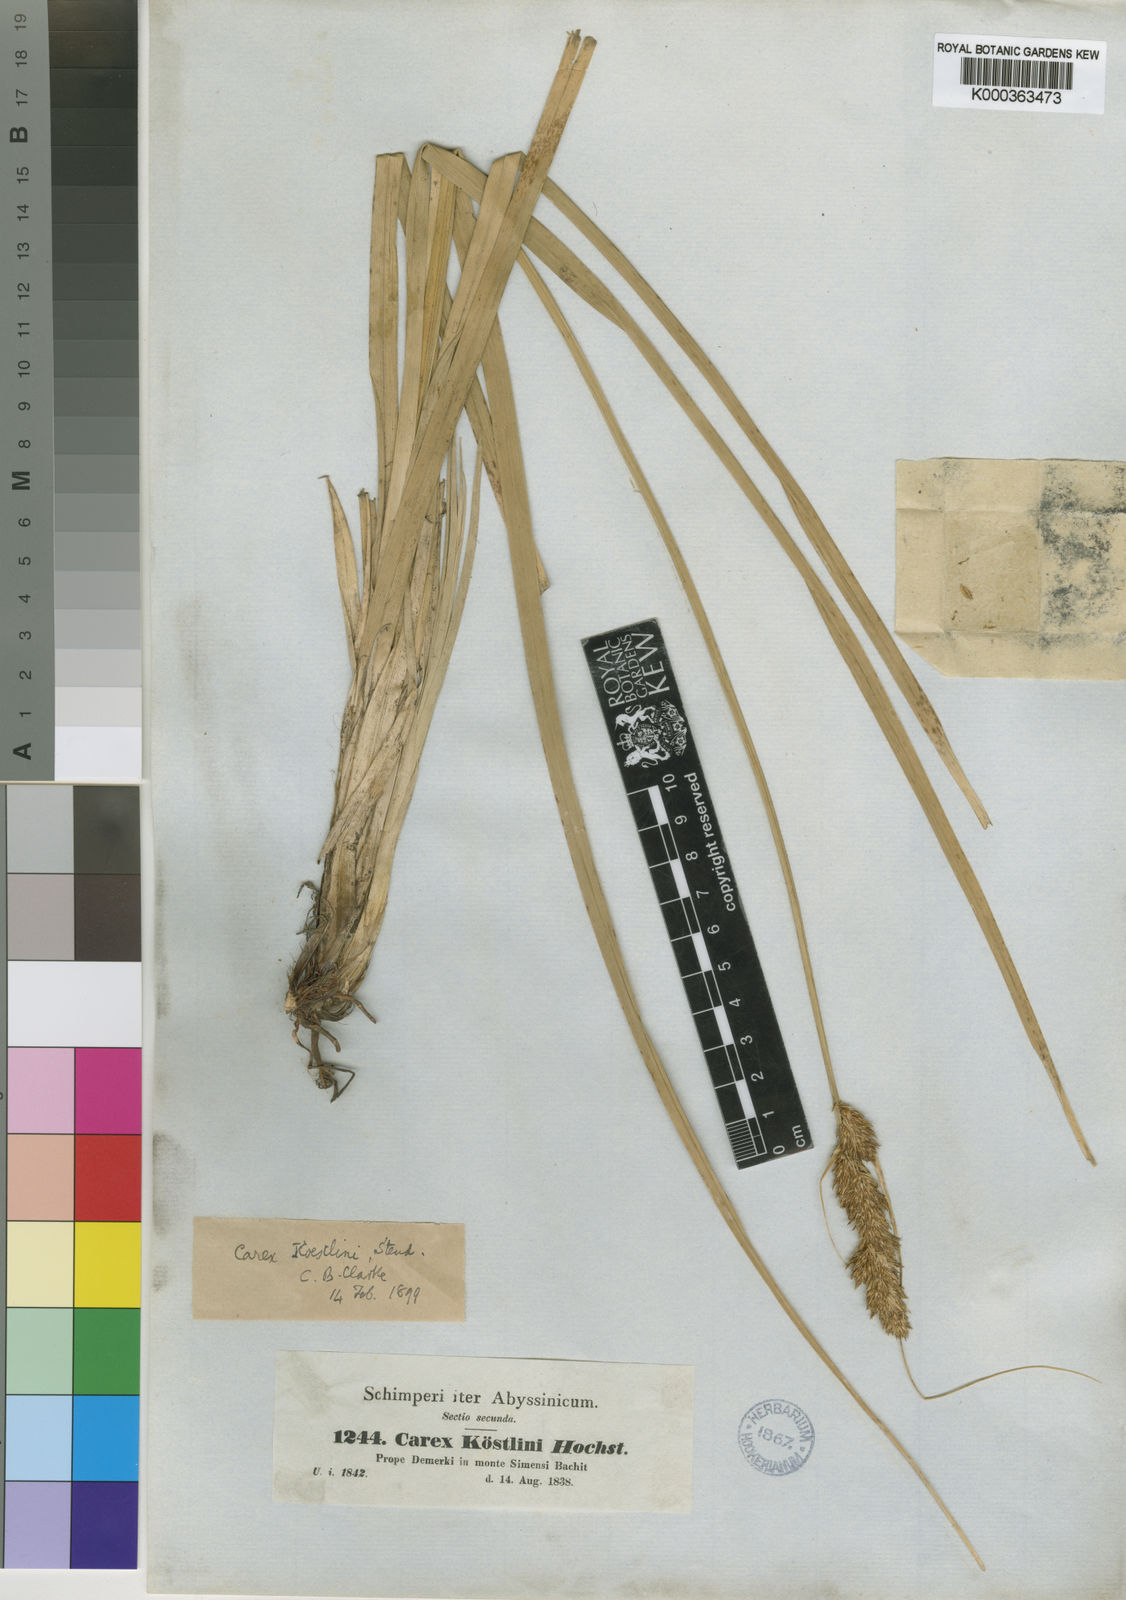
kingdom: Plantae
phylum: Tracheophyta
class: Liliopsida
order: Poales
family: Cyperaceae
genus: Carex
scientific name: Carex koestlinii
